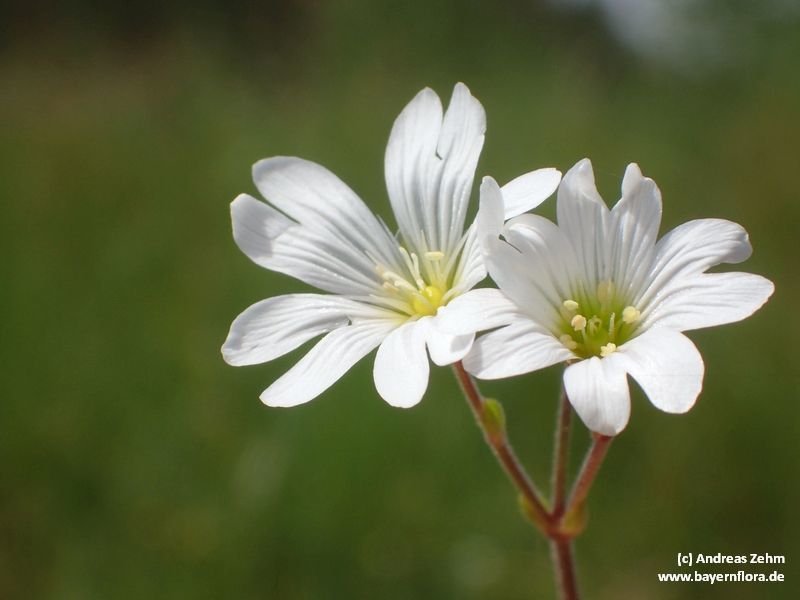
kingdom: Plantae
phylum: Tracheophyta
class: Magnoliopsida
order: Caryophyllales
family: Caryophyllaceae
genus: Cerastium
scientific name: Cerastium arvense
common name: Field mouse-ear
